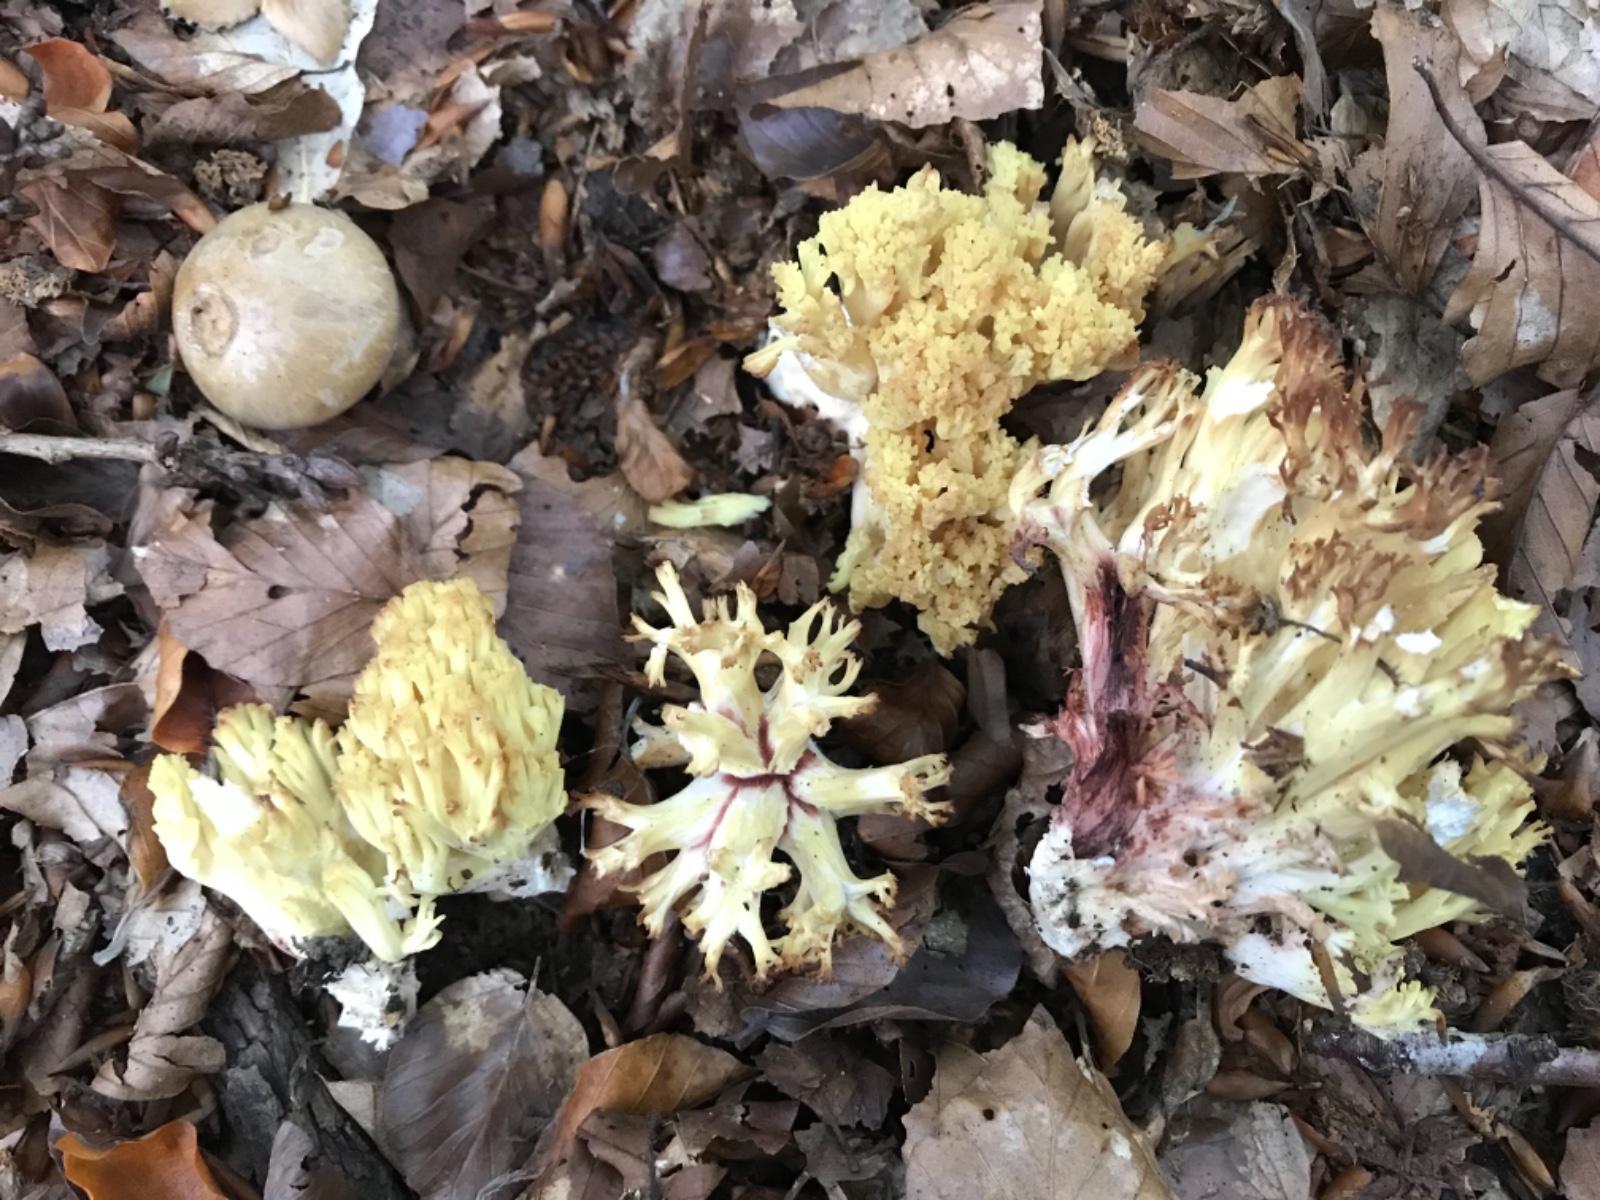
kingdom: Fungi
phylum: Basidiomycota
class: Agaricomycetes
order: Gomphales
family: Gomphaceae
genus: Ramaria
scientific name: Ramaria sanguinea
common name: blodplettet koralsvamp
